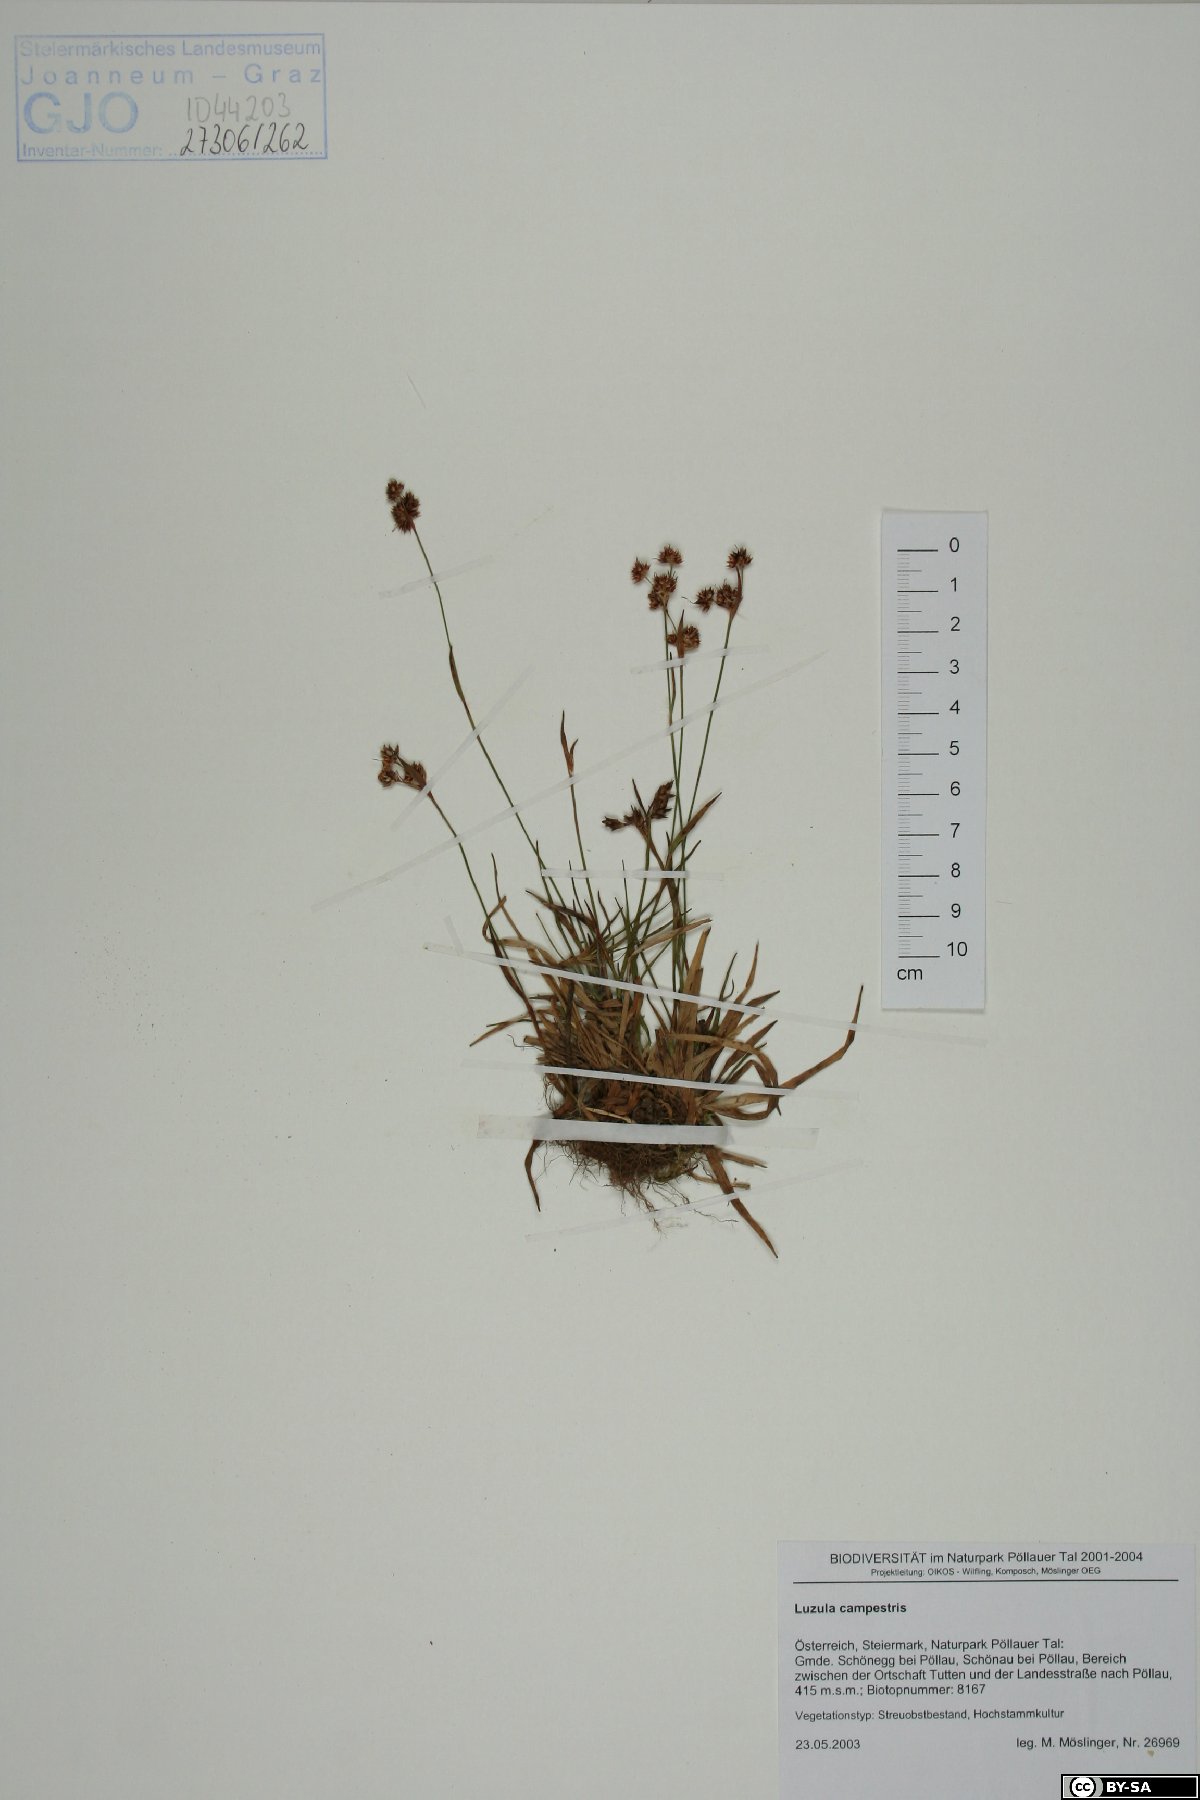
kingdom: Plantae
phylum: Tracheophyta
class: Liliopsida
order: Poales
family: Juncaceae
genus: Luzula
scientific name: Luzula campestris
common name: Field wood-rush
